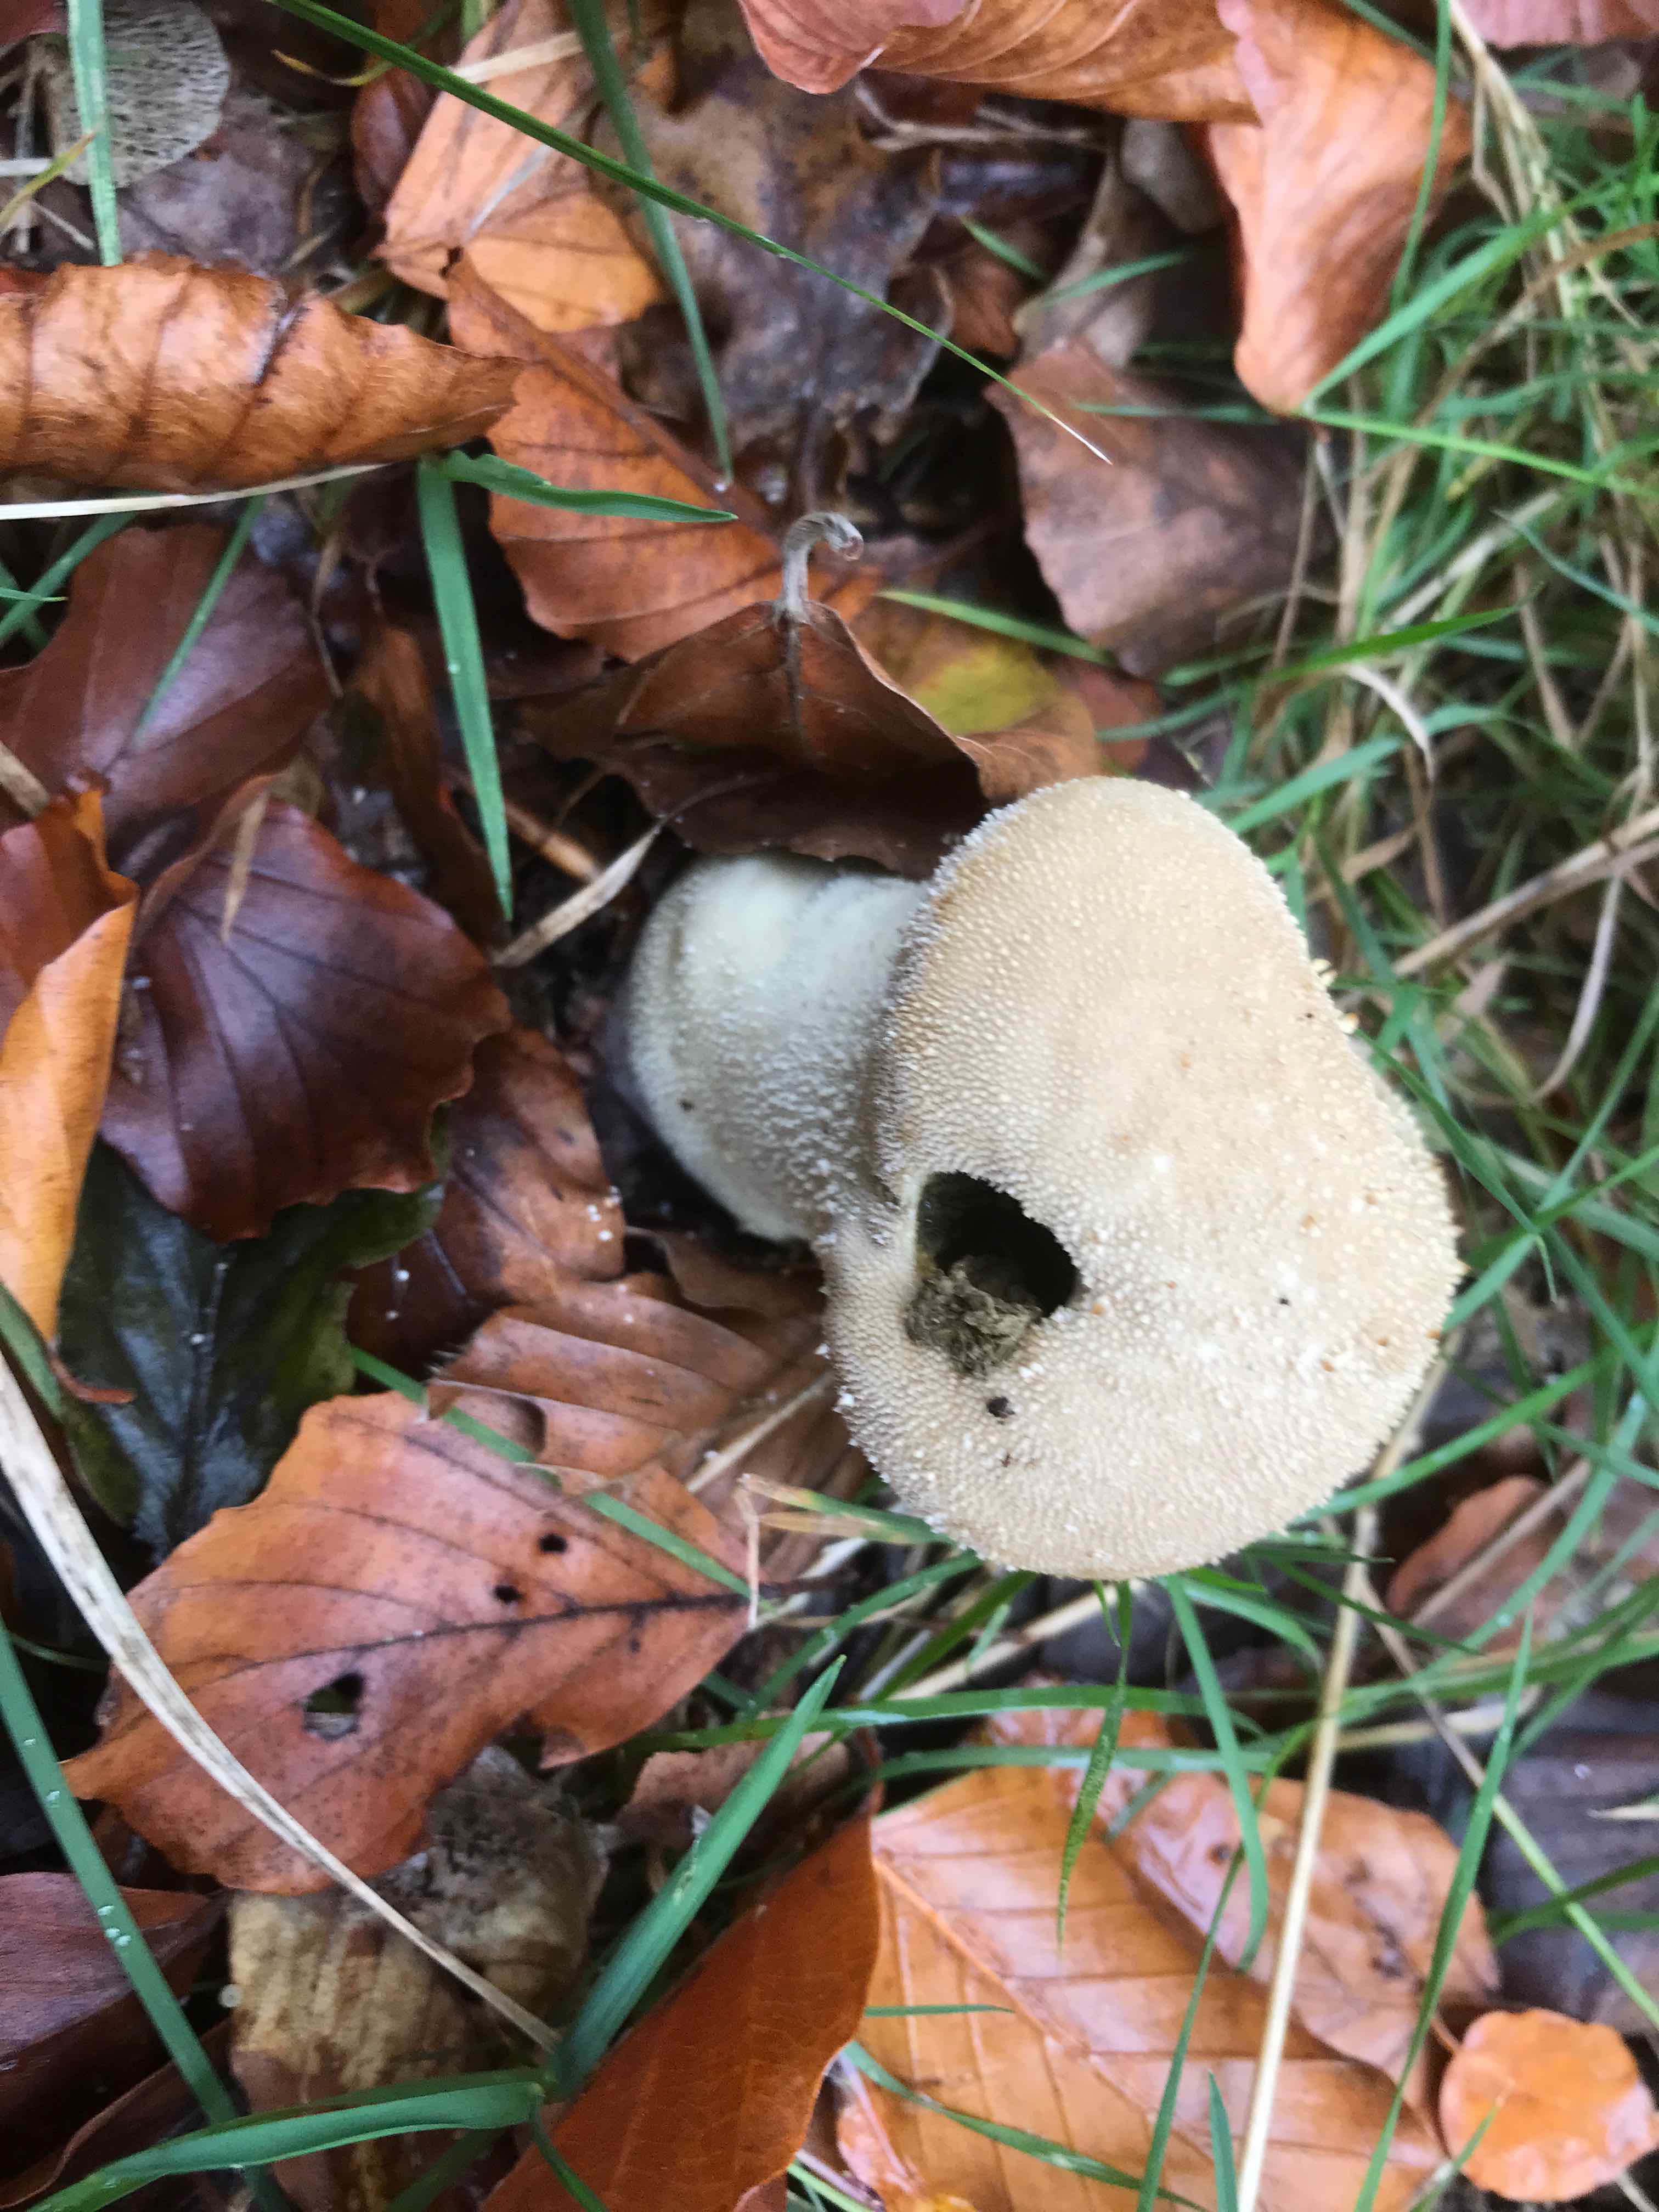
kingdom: Fungi
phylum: Basidiomycota
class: Agaricomycetes
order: Agaricales
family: Lycoperdaceae
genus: Lycoperdon
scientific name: Lycoperdon perlatum
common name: krystal-støvbold
